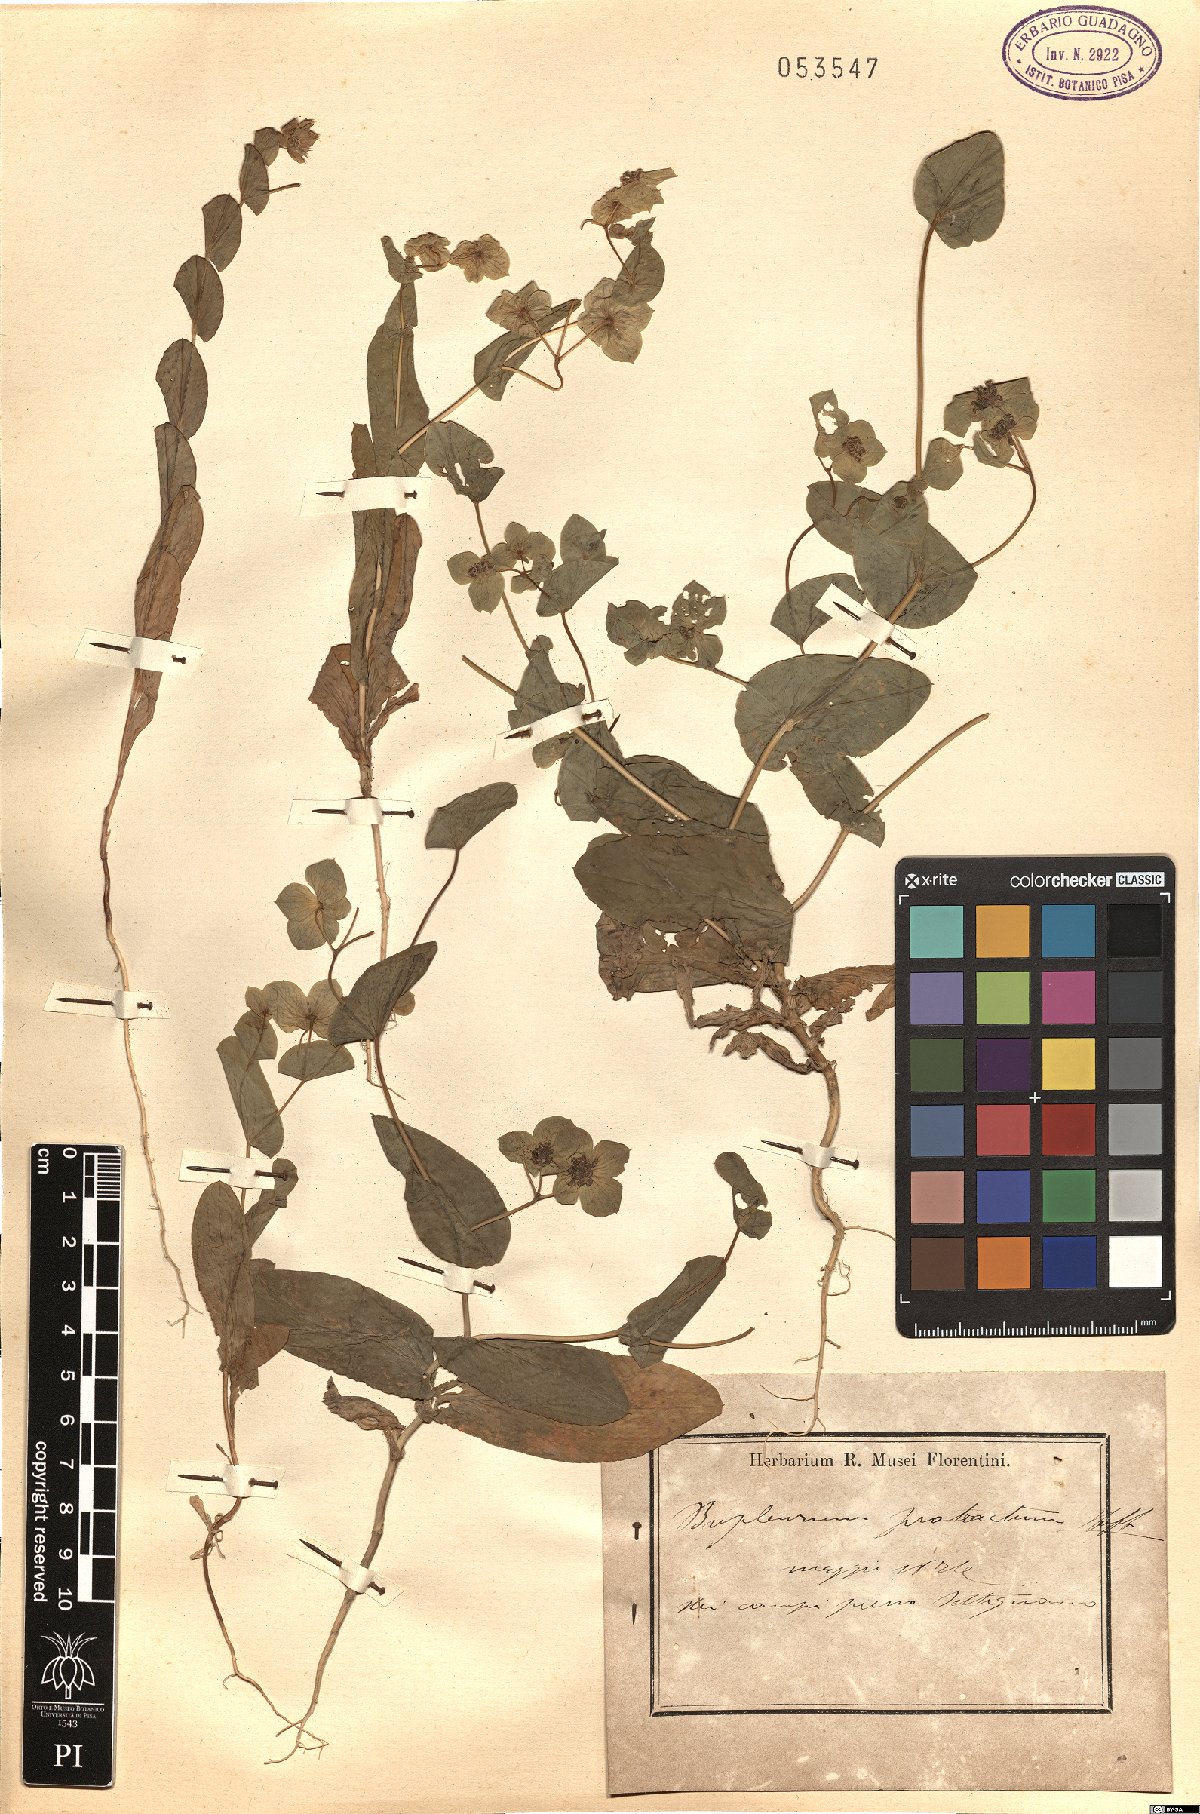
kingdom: Plantae
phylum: Tracheophyta
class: Magnoliopsida
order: Apiales
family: Apiaceae
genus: Bupleurum
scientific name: Bupleurum subovatum
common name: False thorow-wax
